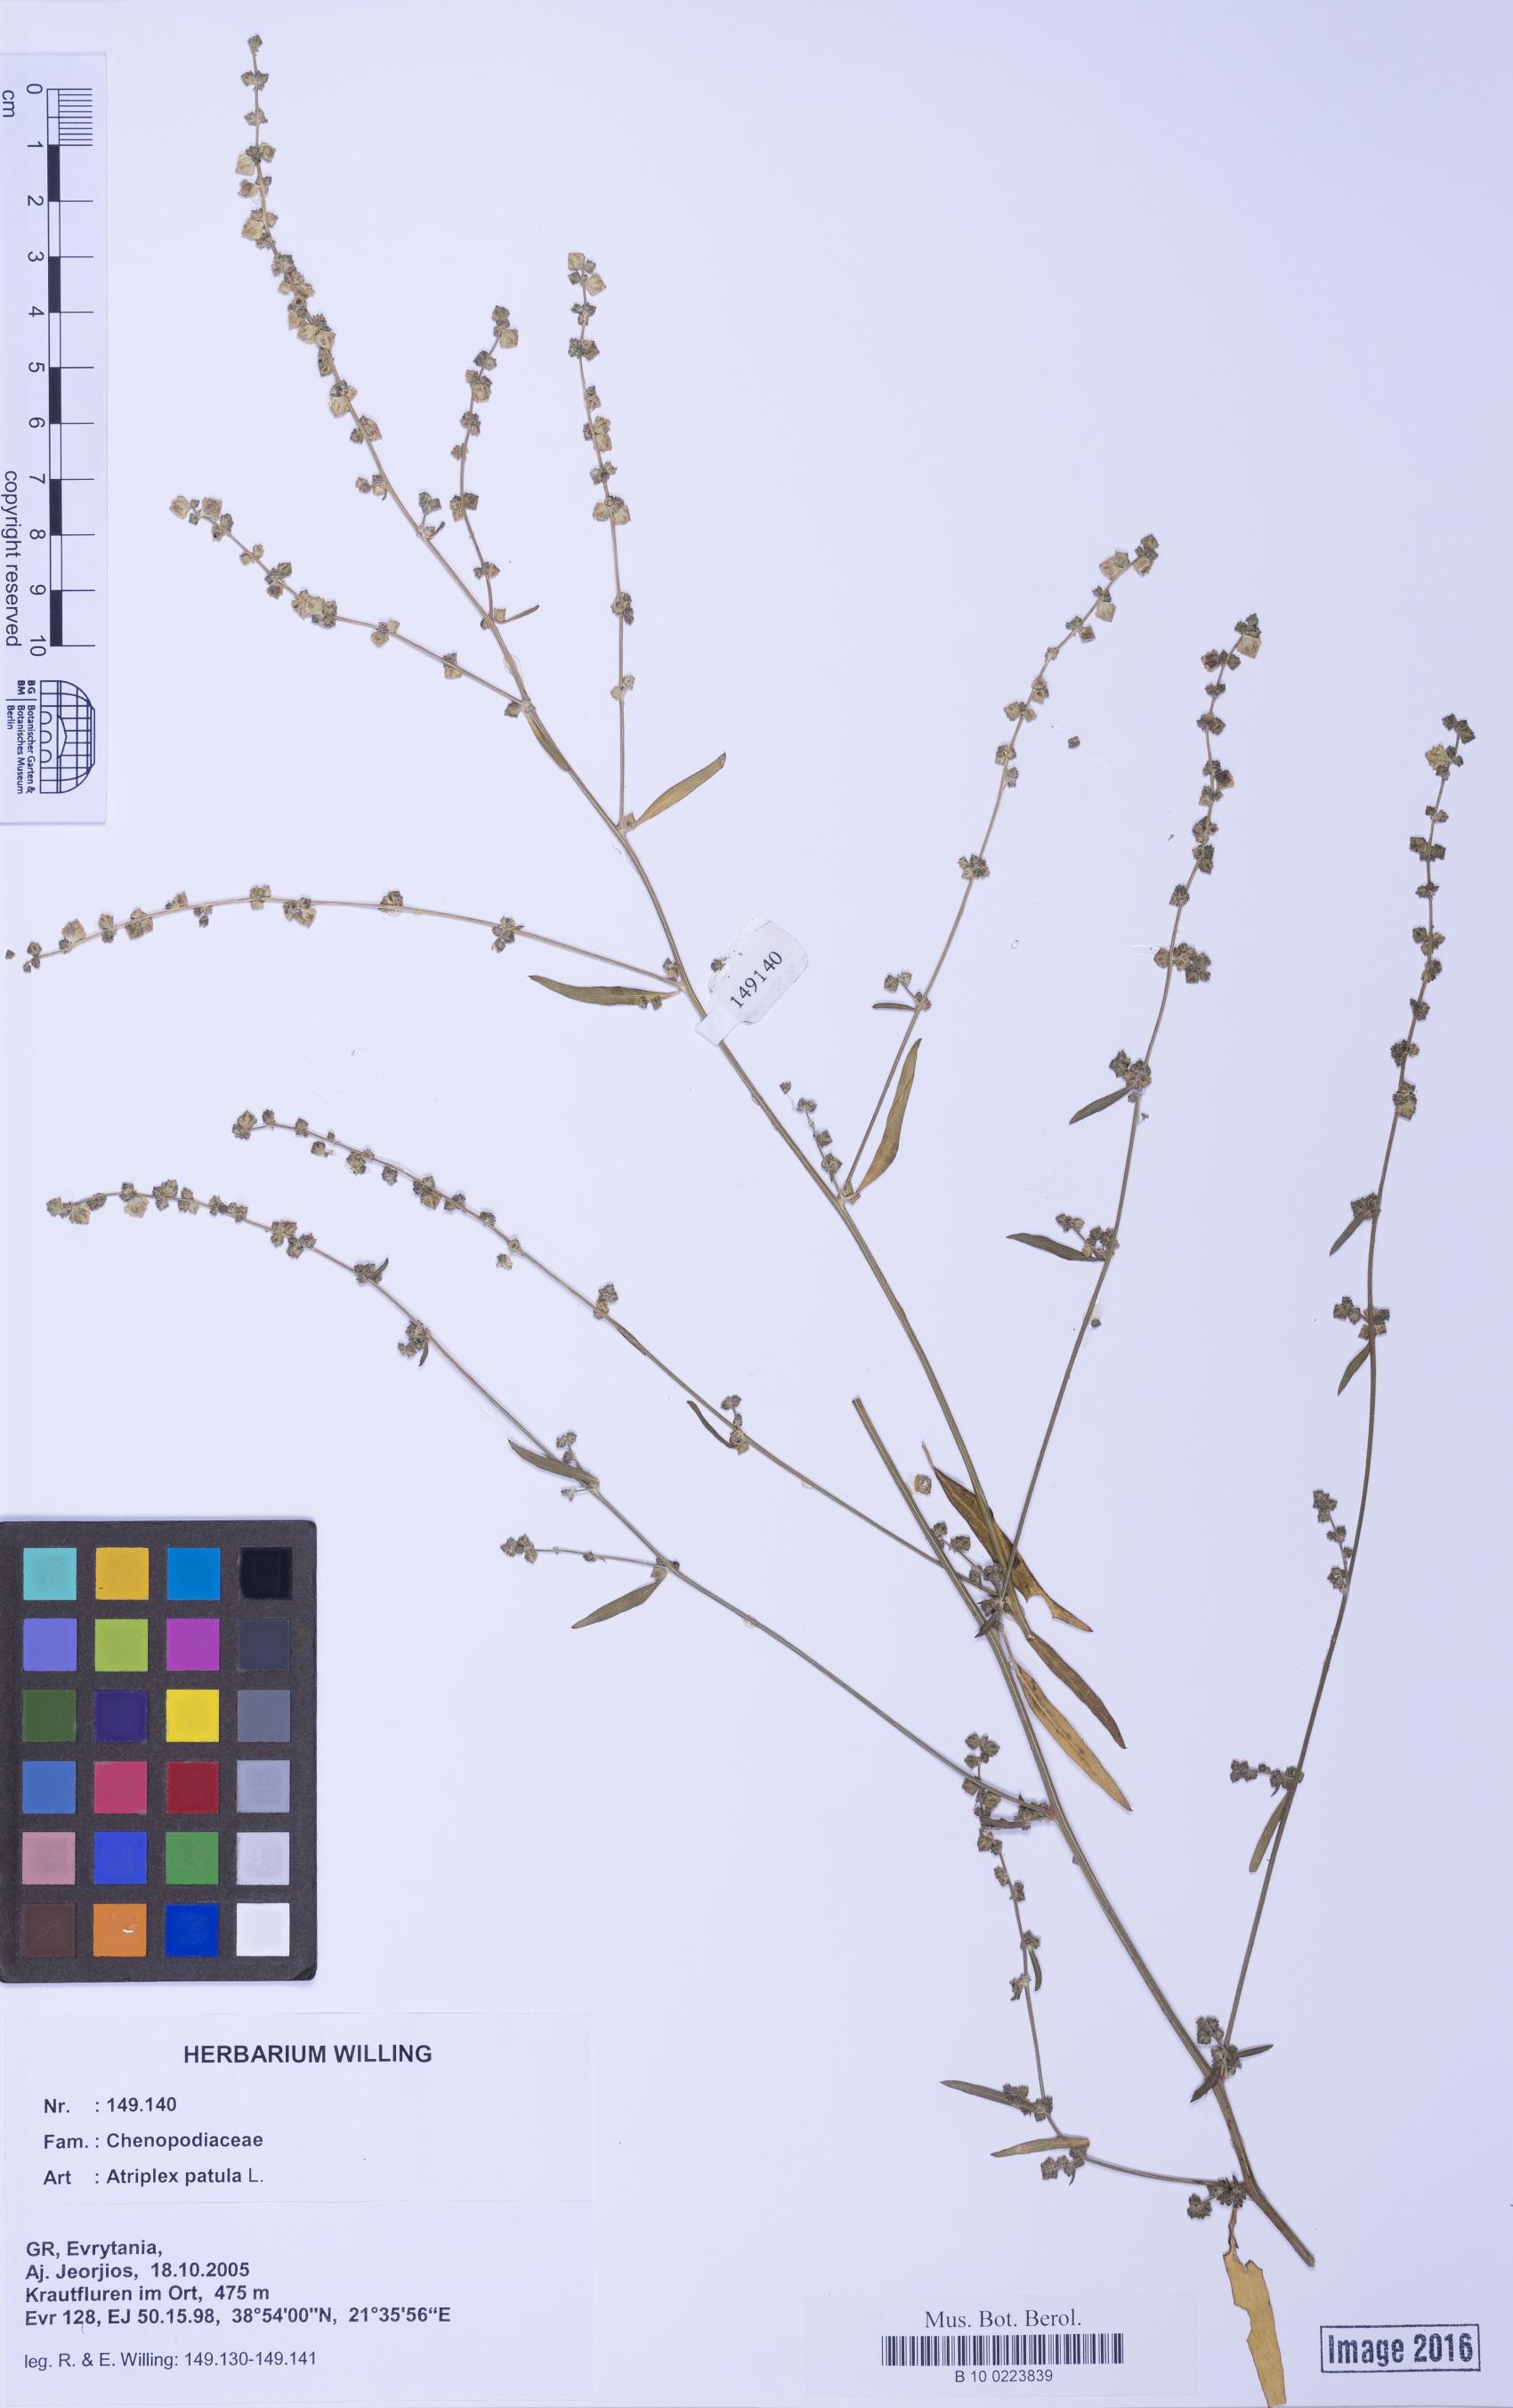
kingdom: Plantae
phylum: Tracheophyta
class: Magnoliopsida
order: Caryophyllales
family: Amaranthaceae
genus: Atriplex
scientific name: Atriplex patula
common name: Common orache
